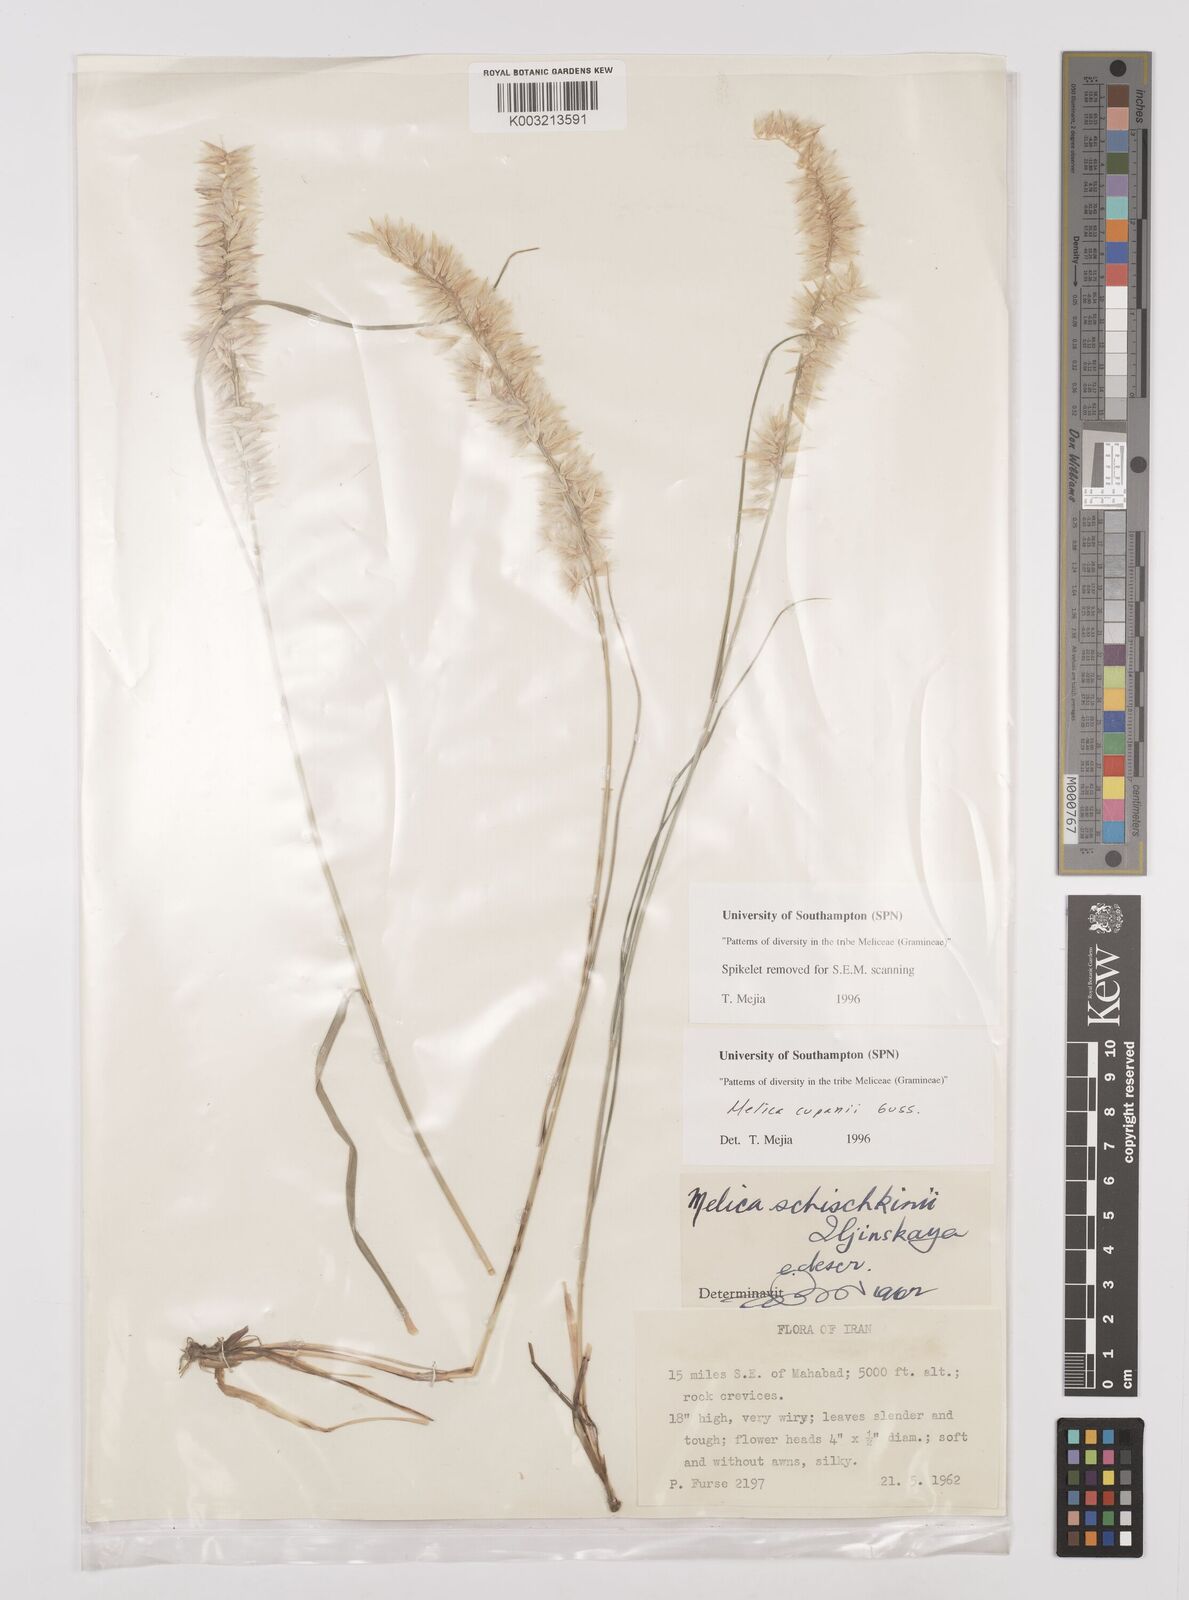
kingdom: Plantae
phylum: Tracheophyta
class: Liliopsida
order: Poales
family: Poaceae
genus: Melica
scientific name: Melica cupani
